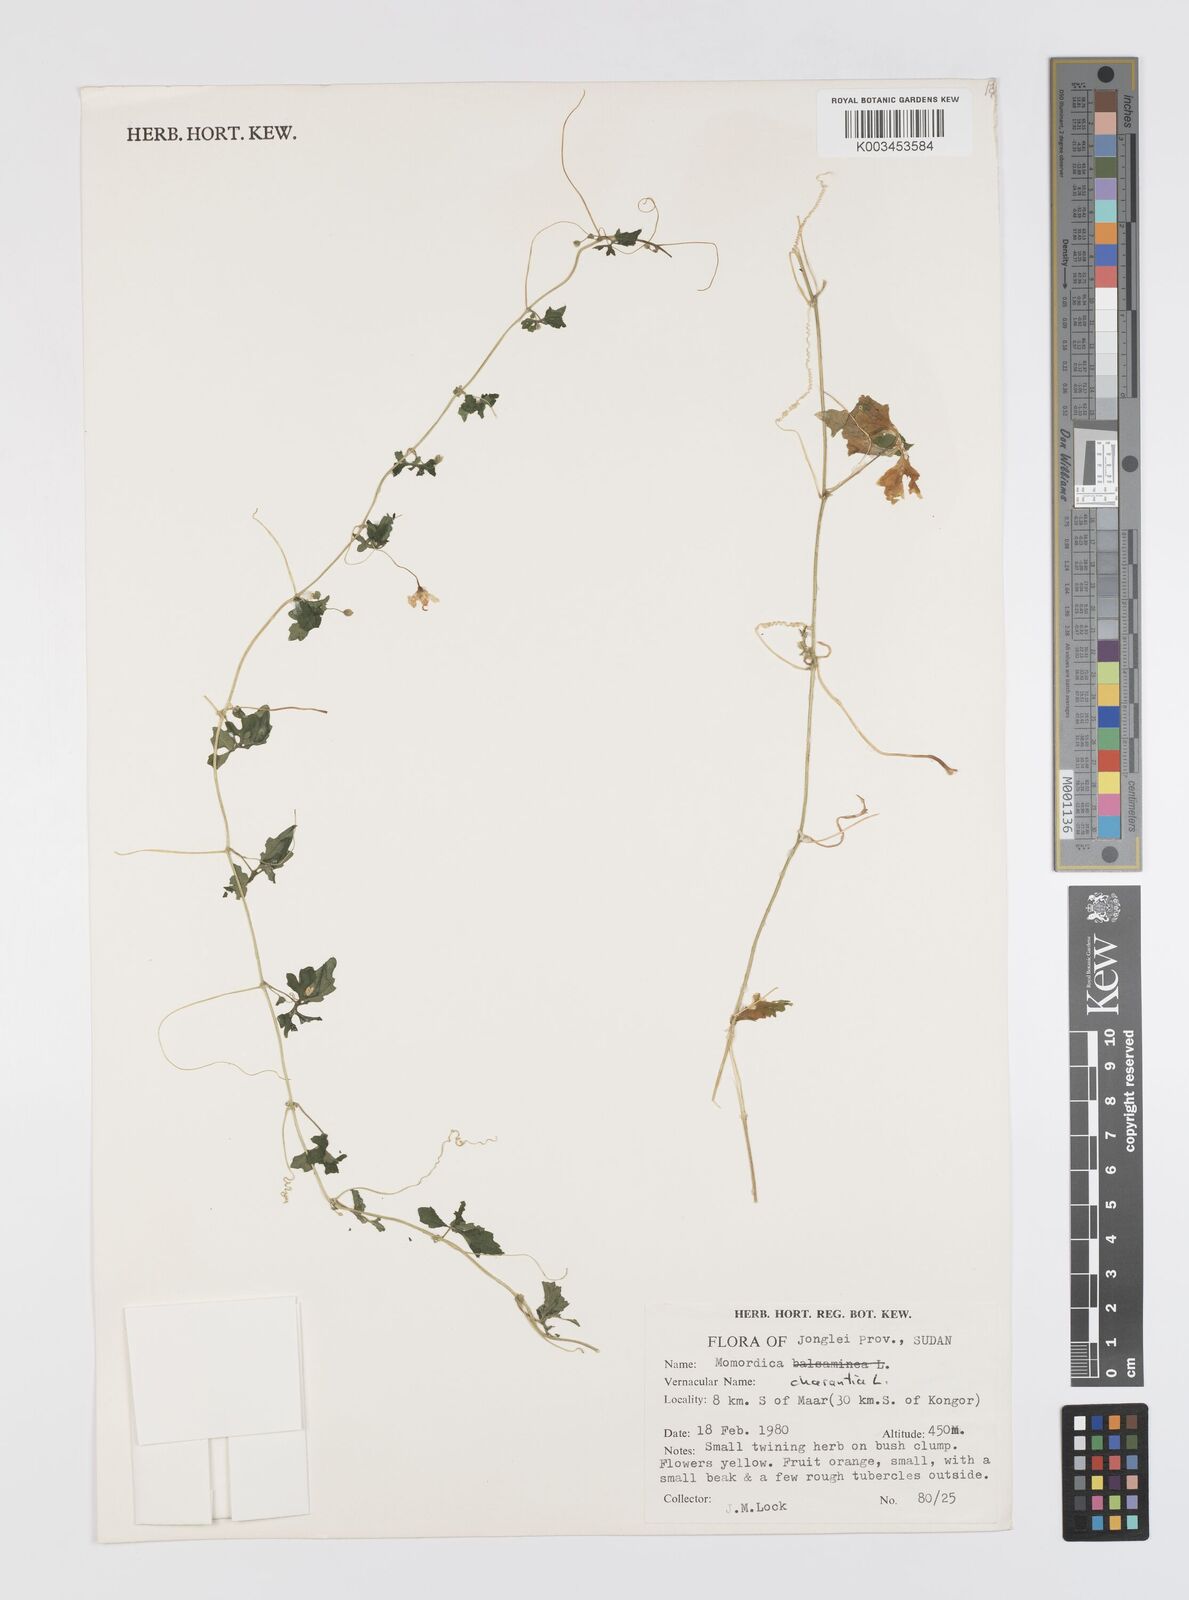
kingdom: Plantae
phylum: Tracheophyta
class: Magnoliopsida
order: Cucurbitales
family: Cucurbitaceae
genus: Momordica
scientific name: Momordica charantia
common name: Balsampear
